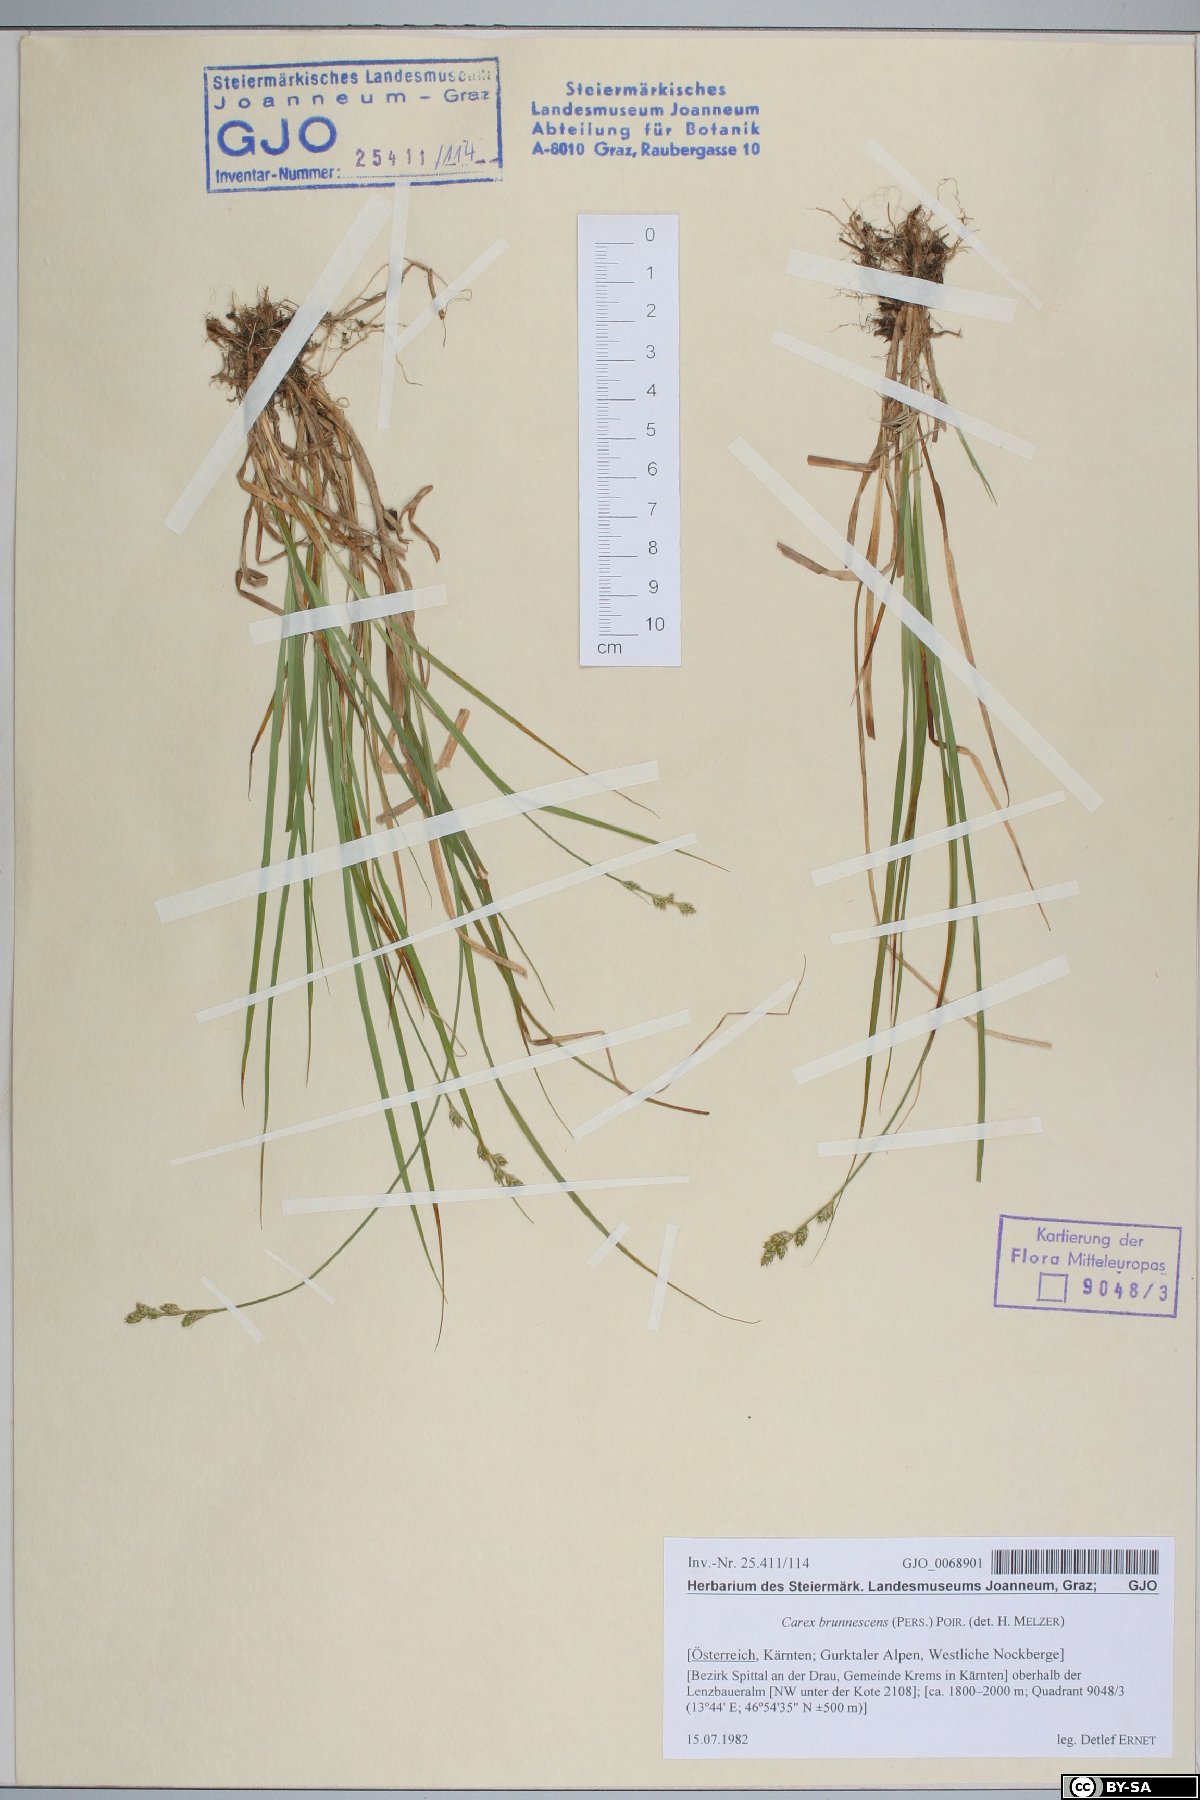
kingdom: Plantae
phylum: Tracheophyta
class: Liliopsida
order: Poales
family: Cyperaceae
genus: Carex
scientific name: Carex brunnescens
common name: Brown sedge
